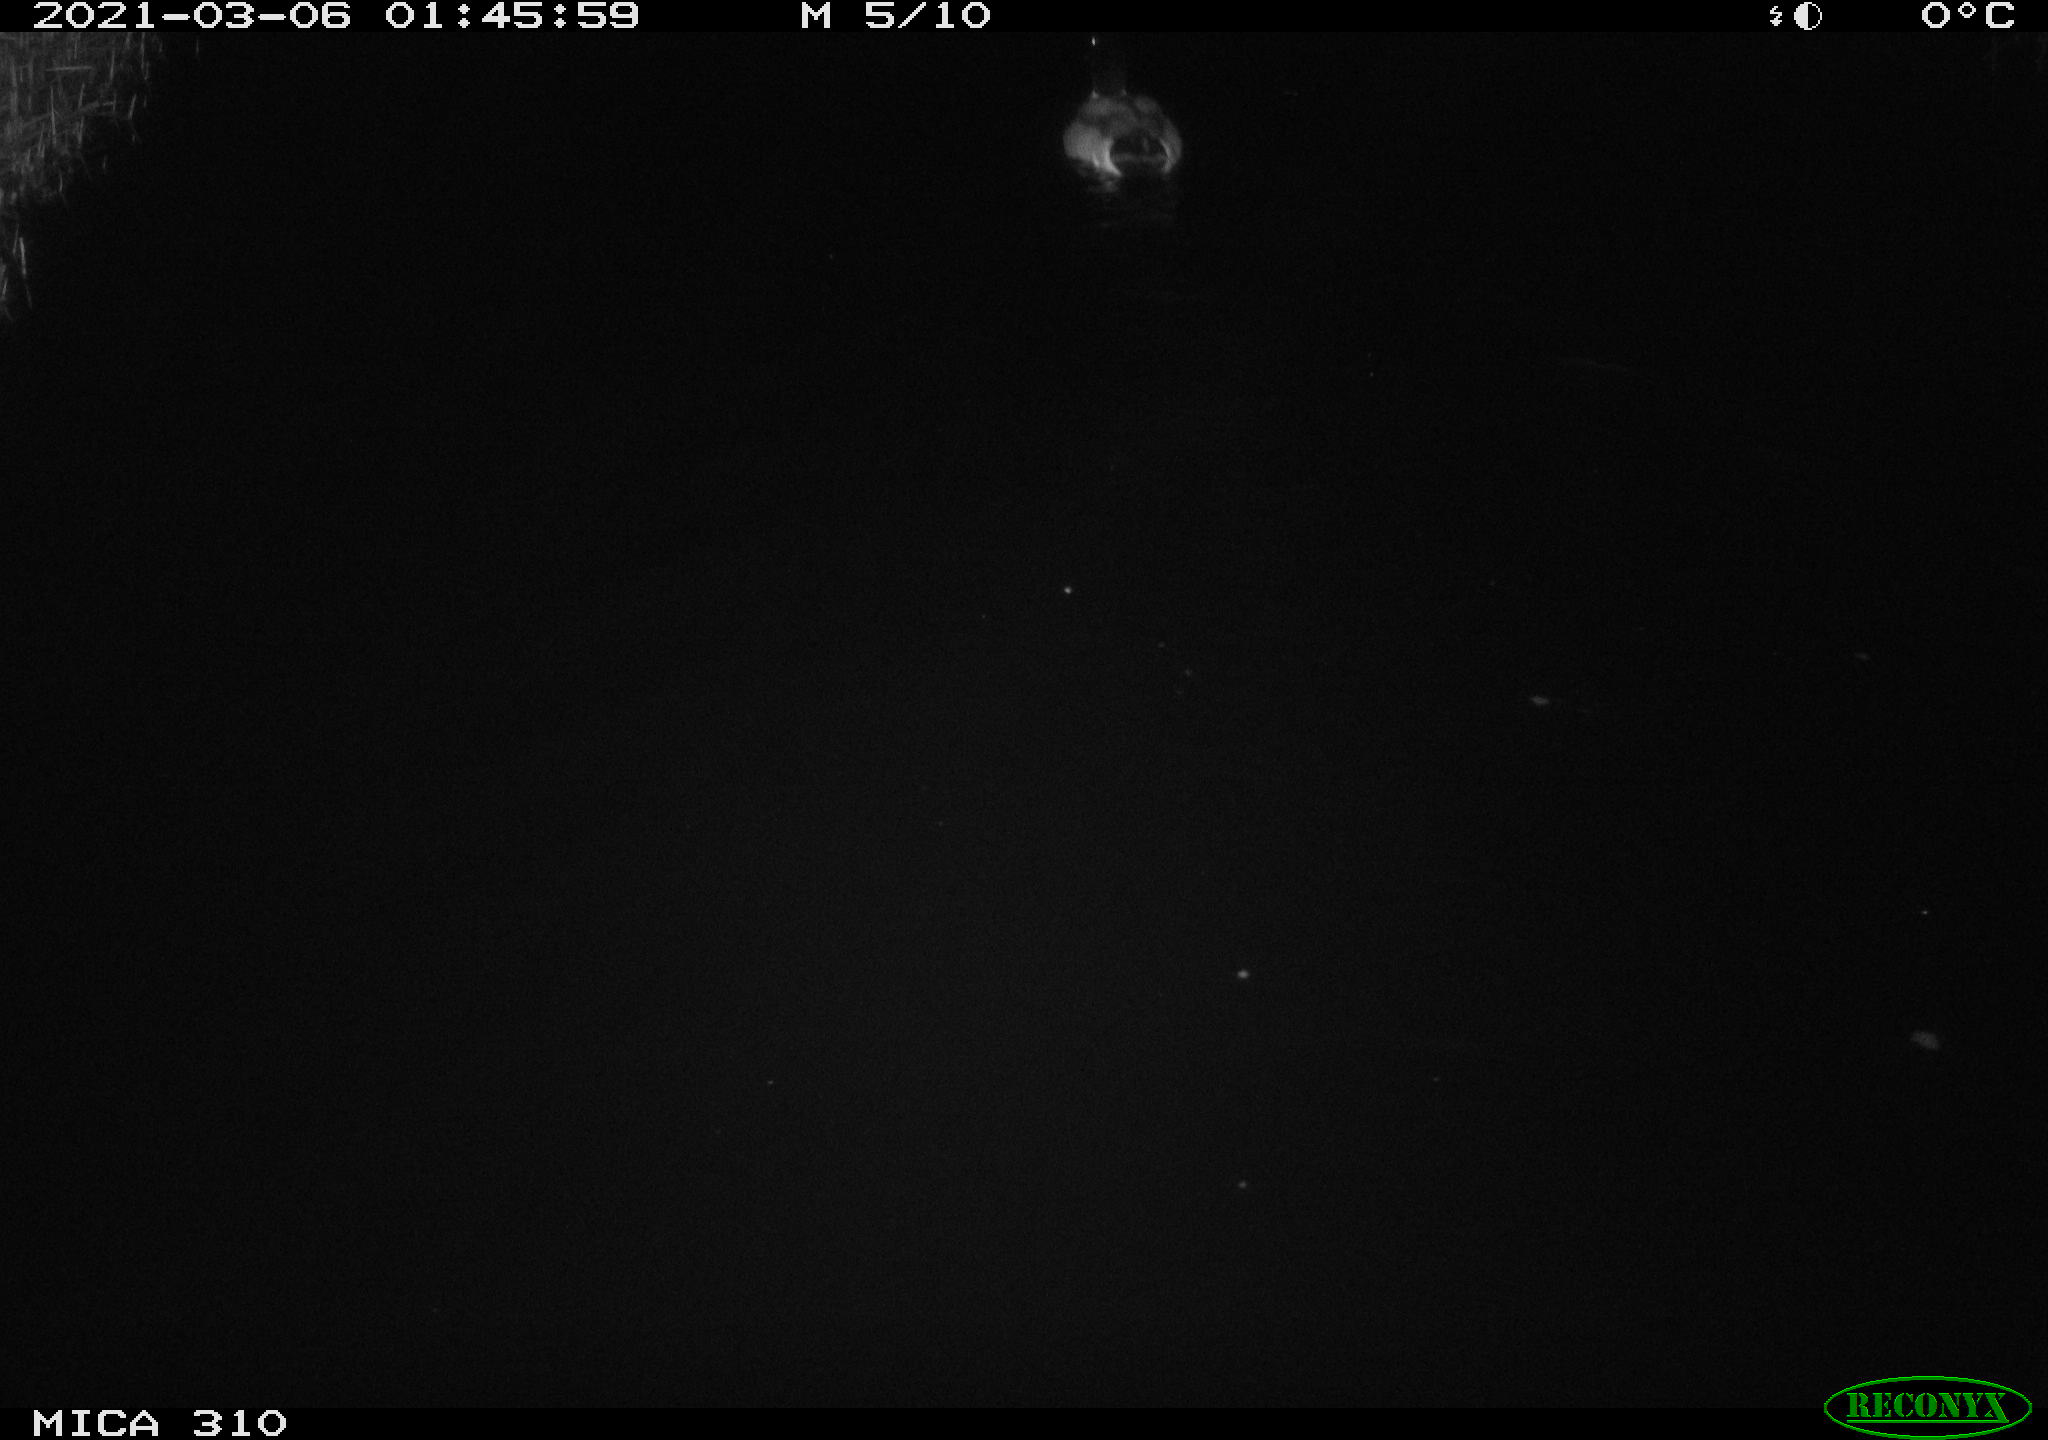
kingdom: Animalia
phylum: Chordata
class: Aves
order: Anseriformes
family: Anatidae
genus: Anas
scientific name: Anas platyrhynchos
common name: Mallard
